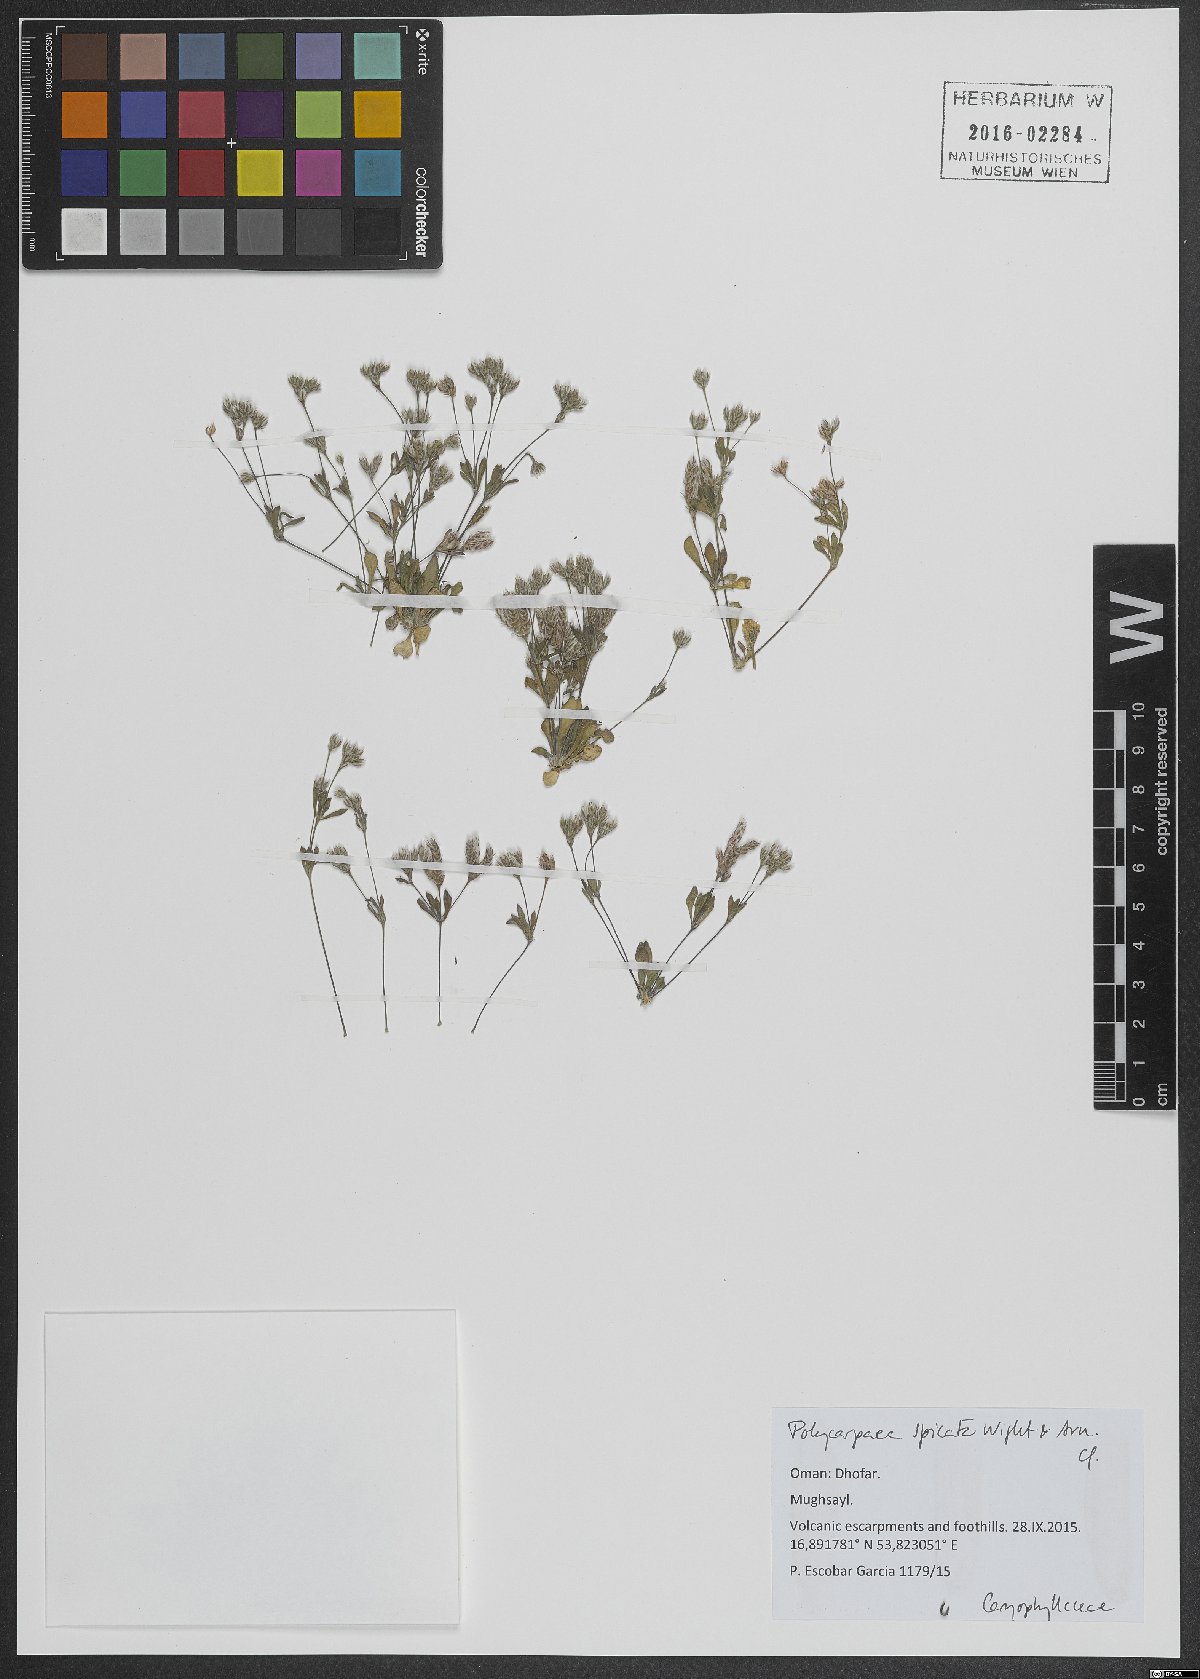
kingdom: Plantae
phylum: Tracheophyta
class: Magnoliopsida
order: Caryophyllales
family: Caryophyllaceae
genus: Polycarpaea
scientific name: Polycarpaea spicata
